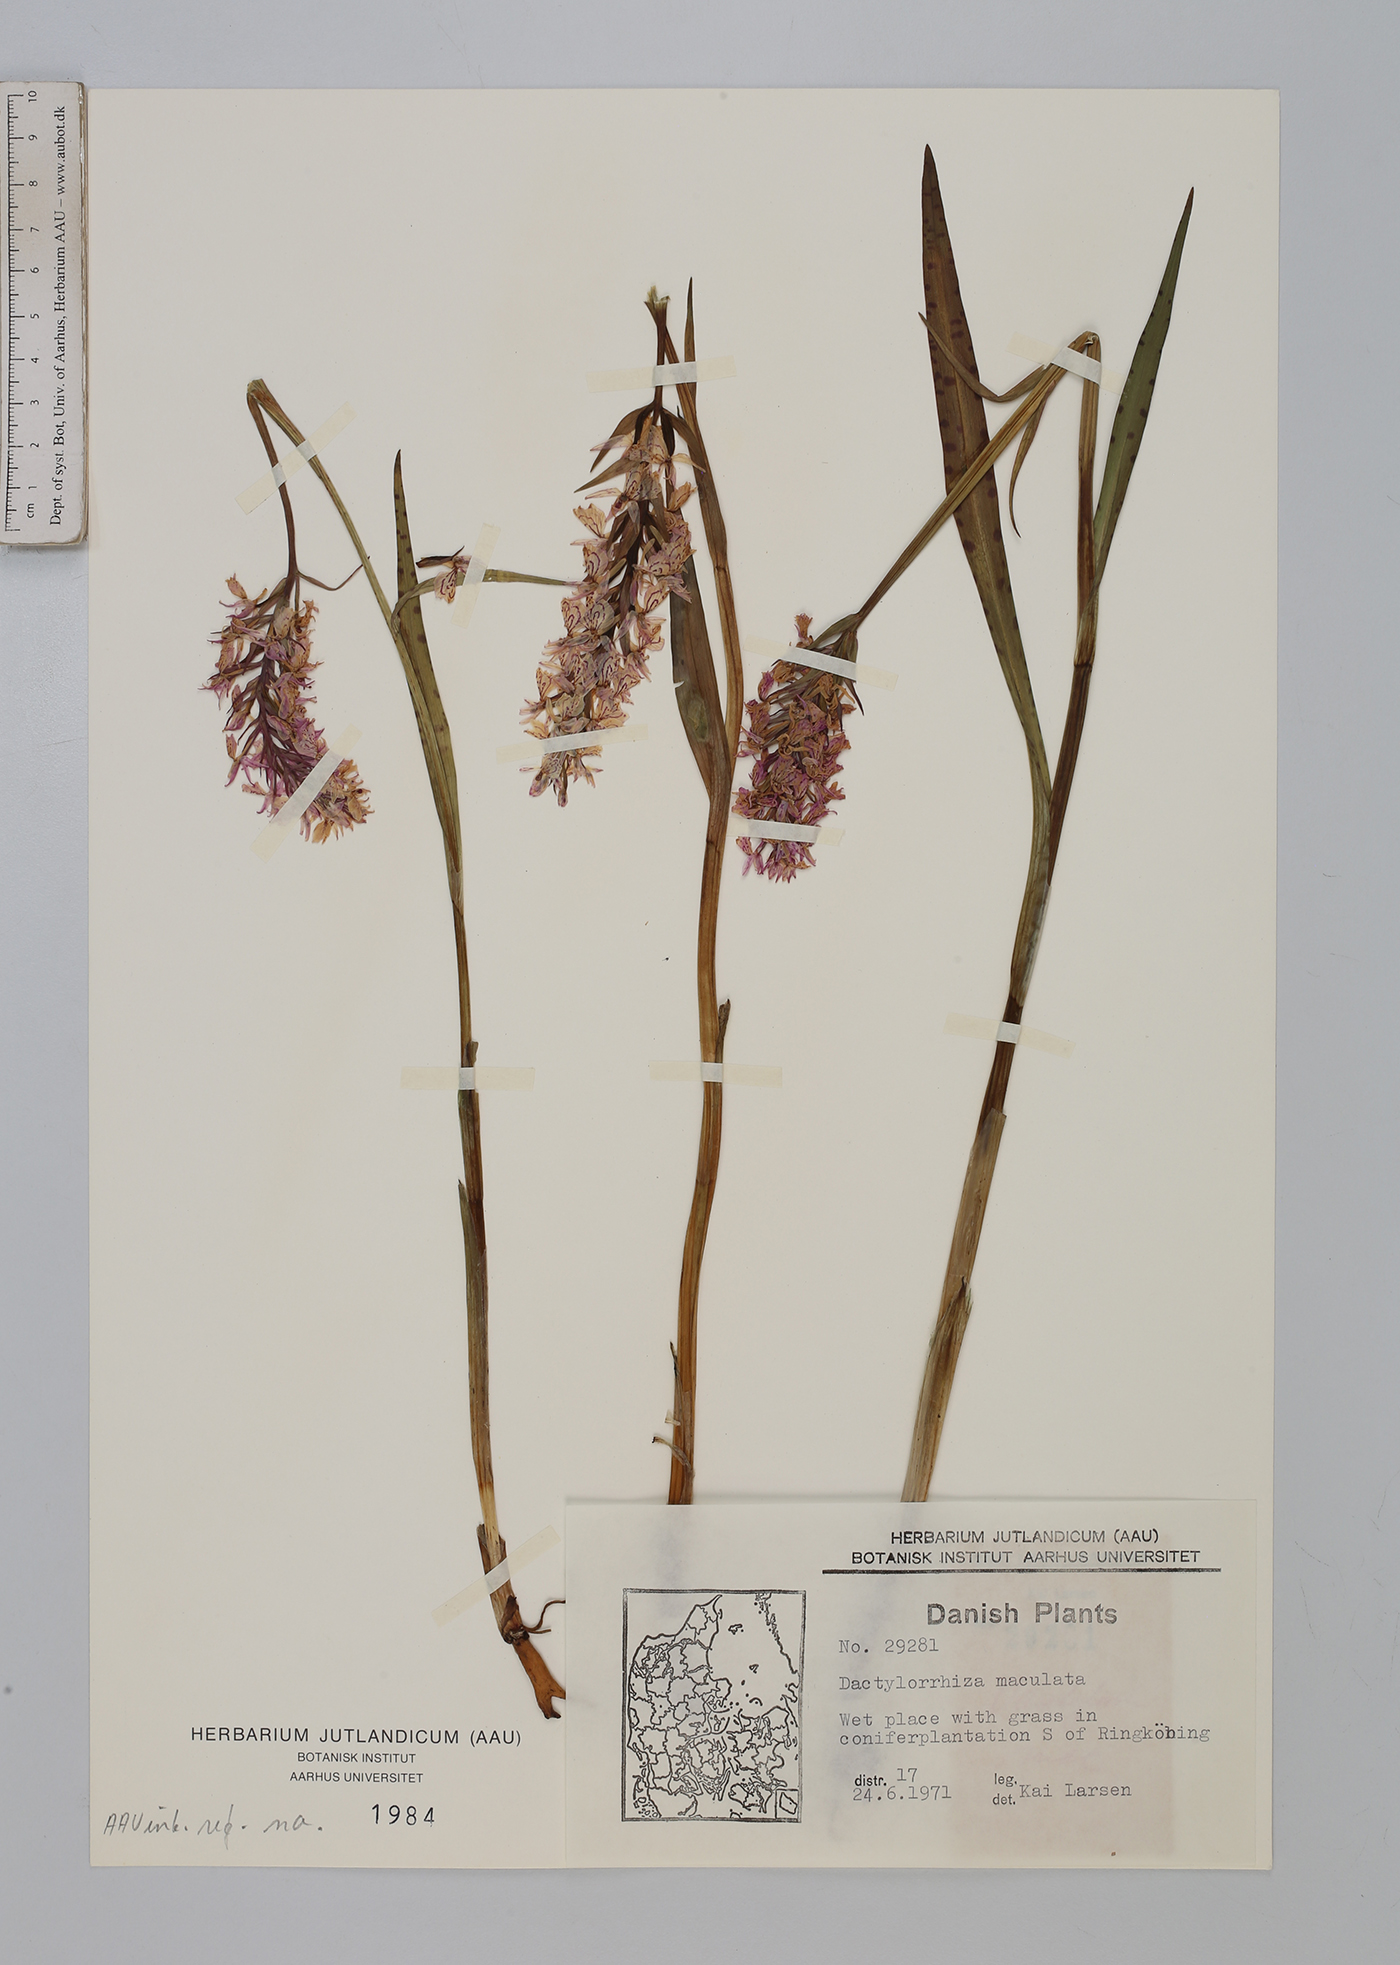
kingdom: Plantae
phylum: Tracheophyta
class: Liliopsida
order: Asparagales
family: Orchidaceae
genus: Dactylorhiza
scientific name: Dactylorhiza maculata
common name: Heath spotted-orchid
